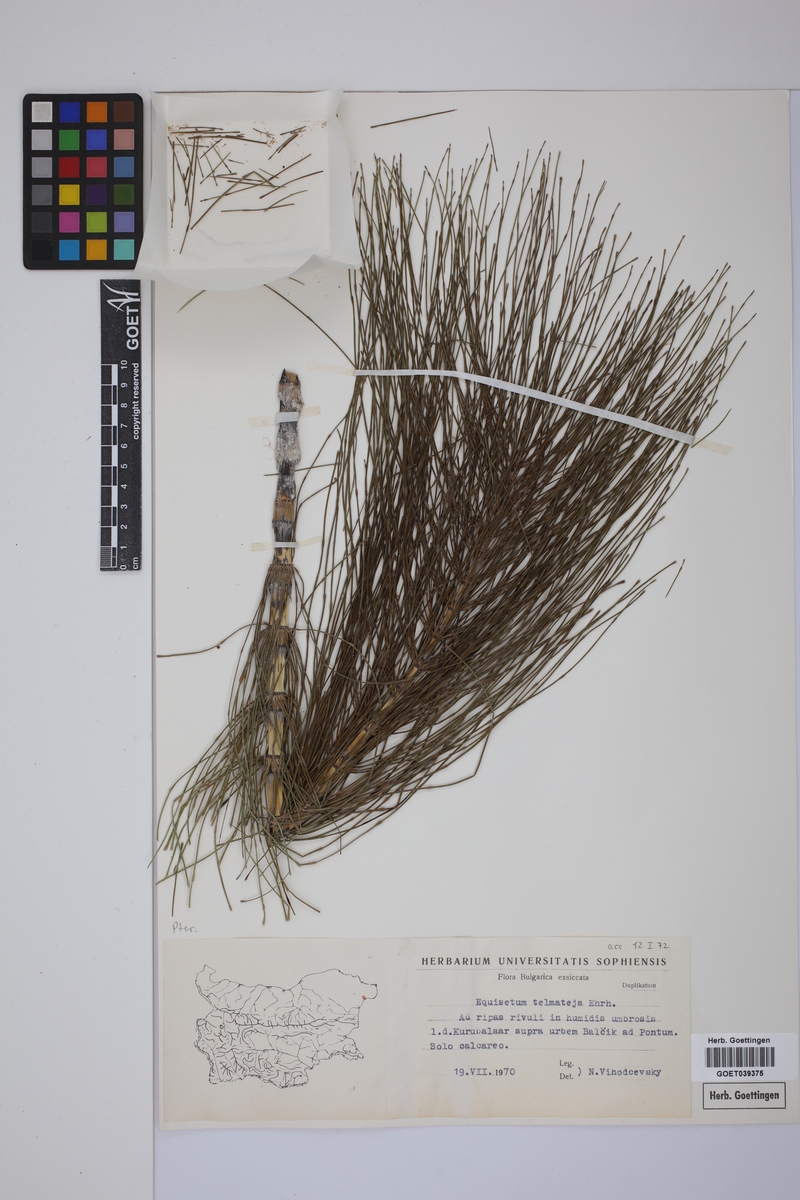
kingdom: Plantae
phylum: Tracheophyta
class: Polypodiopsida
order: Equisetales
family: Equisetaceae
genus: Equisetum
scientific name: Equisetum telmateia
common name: Great horsetail
